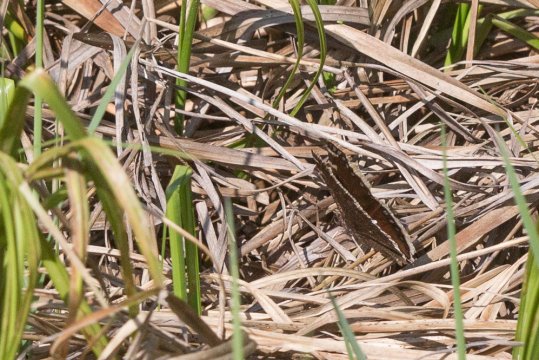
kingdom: Animalia
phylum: Arthropoda
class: Insecta
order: Lepidoptera
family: Nymphalidae
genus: Nymphalis
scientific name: Nymphalis antiopa
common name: Mourning Cloak
